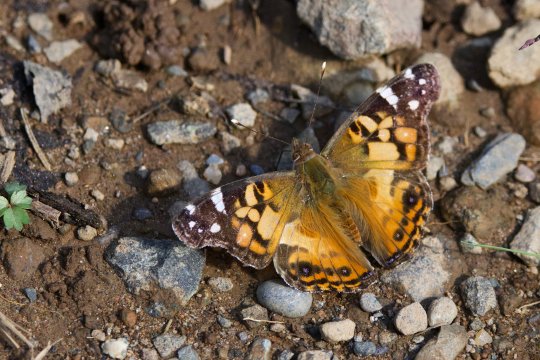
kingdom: Animalia
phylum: Arthropoda
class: Insecta
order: Lepidoptera
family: Nymphalidae
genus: Vanessa
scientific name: Vanessa virginiensis
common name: American Lady
